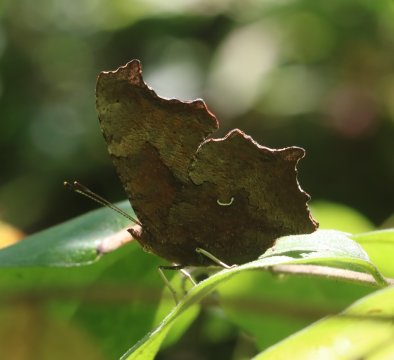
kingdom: Animalia
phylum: Arthropoda
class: Insecta
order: Lepidoptera
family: Nymphalidae
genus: Polygonia
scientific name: Polygonia progne
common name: Gray Comma
